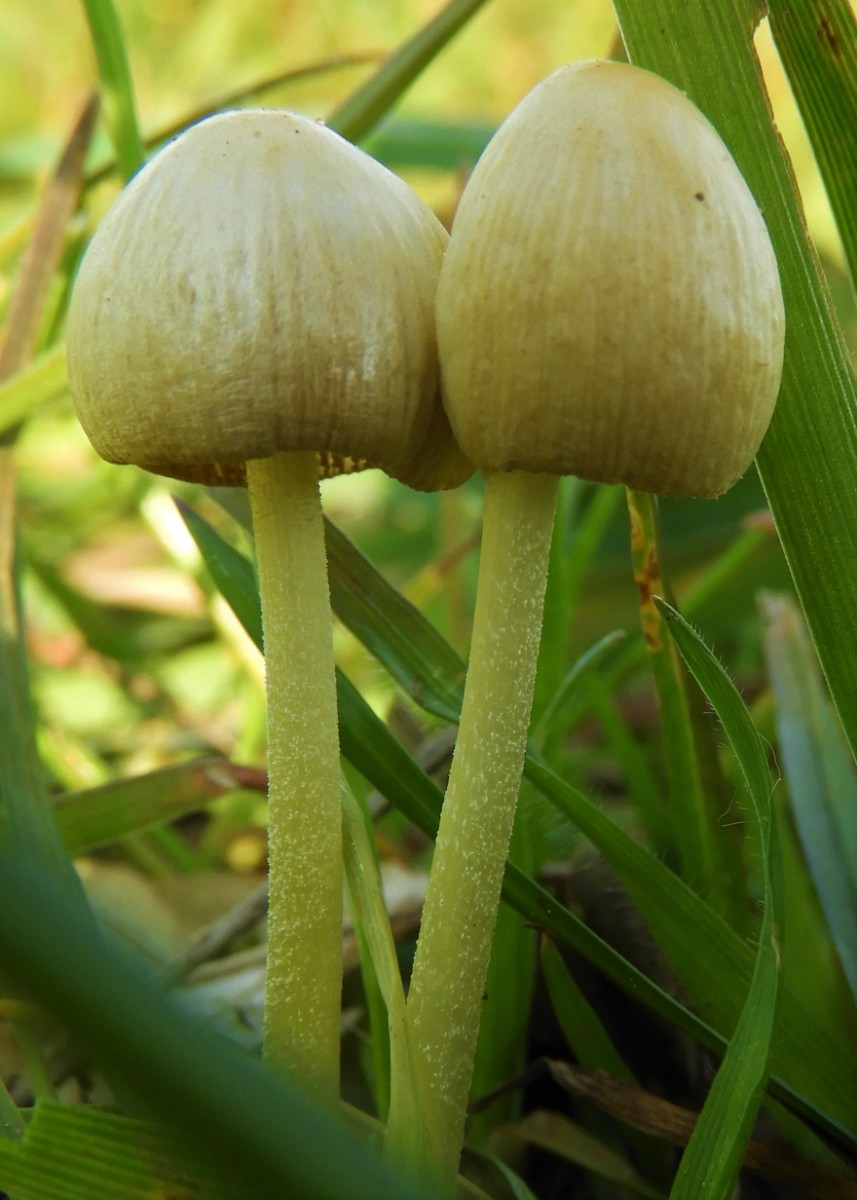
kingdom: Fungi
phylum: Basidiomycota
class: Agaricomycetes
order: Agaricales
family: Bolbitiaceae
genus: Bolbitius
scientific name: Bolbitius titubans
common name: almindelig gulhat
